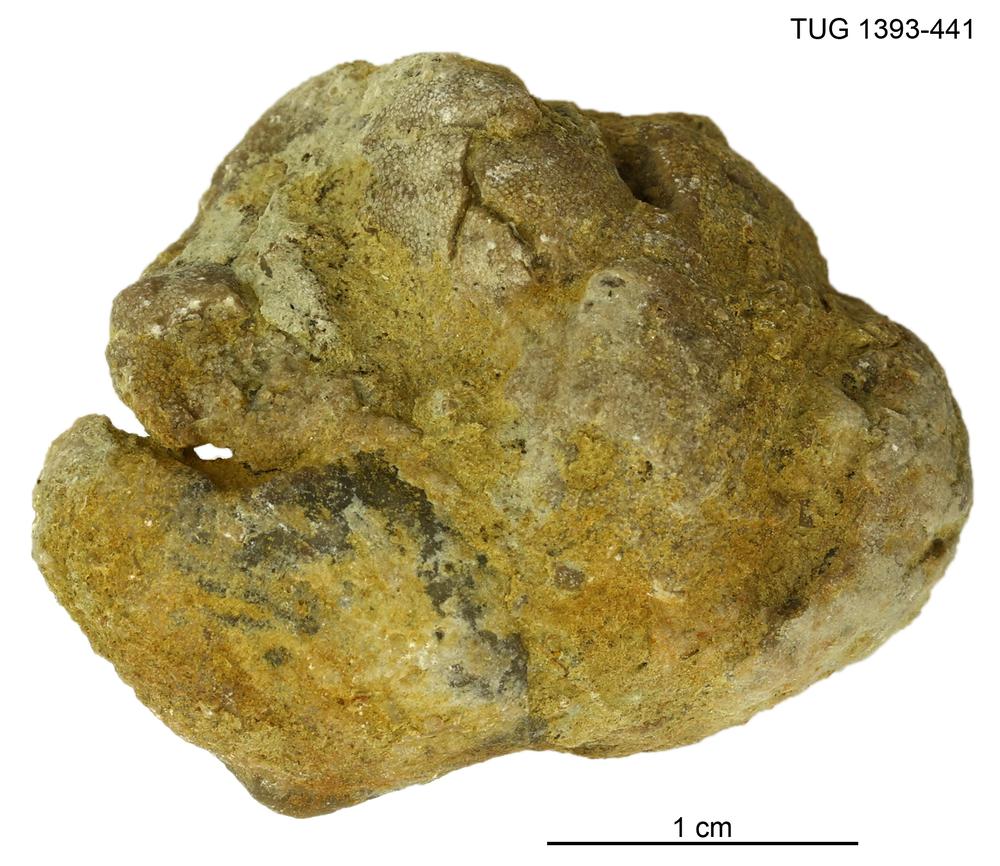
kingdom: Animalia
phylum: Bryozoa
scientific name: Bryozoa
